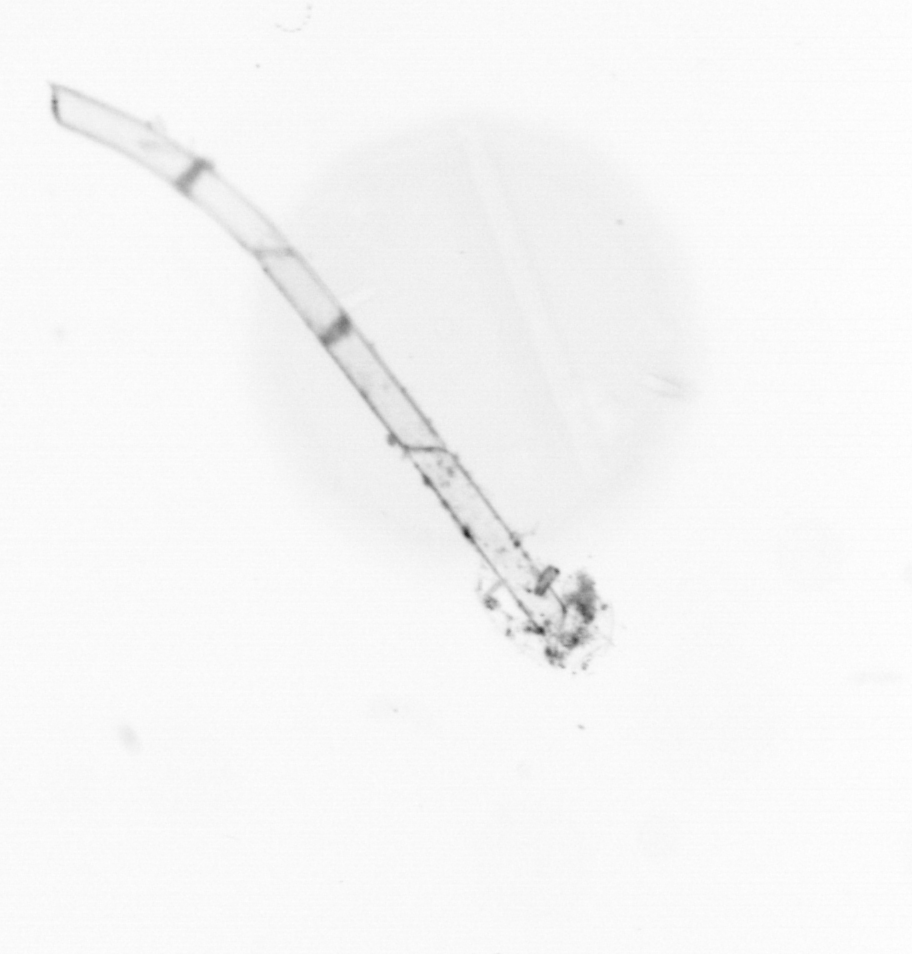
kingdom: Chromista
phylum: Ochrophyta
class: Bacillariophyceae
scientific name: Bacillariophyceae
